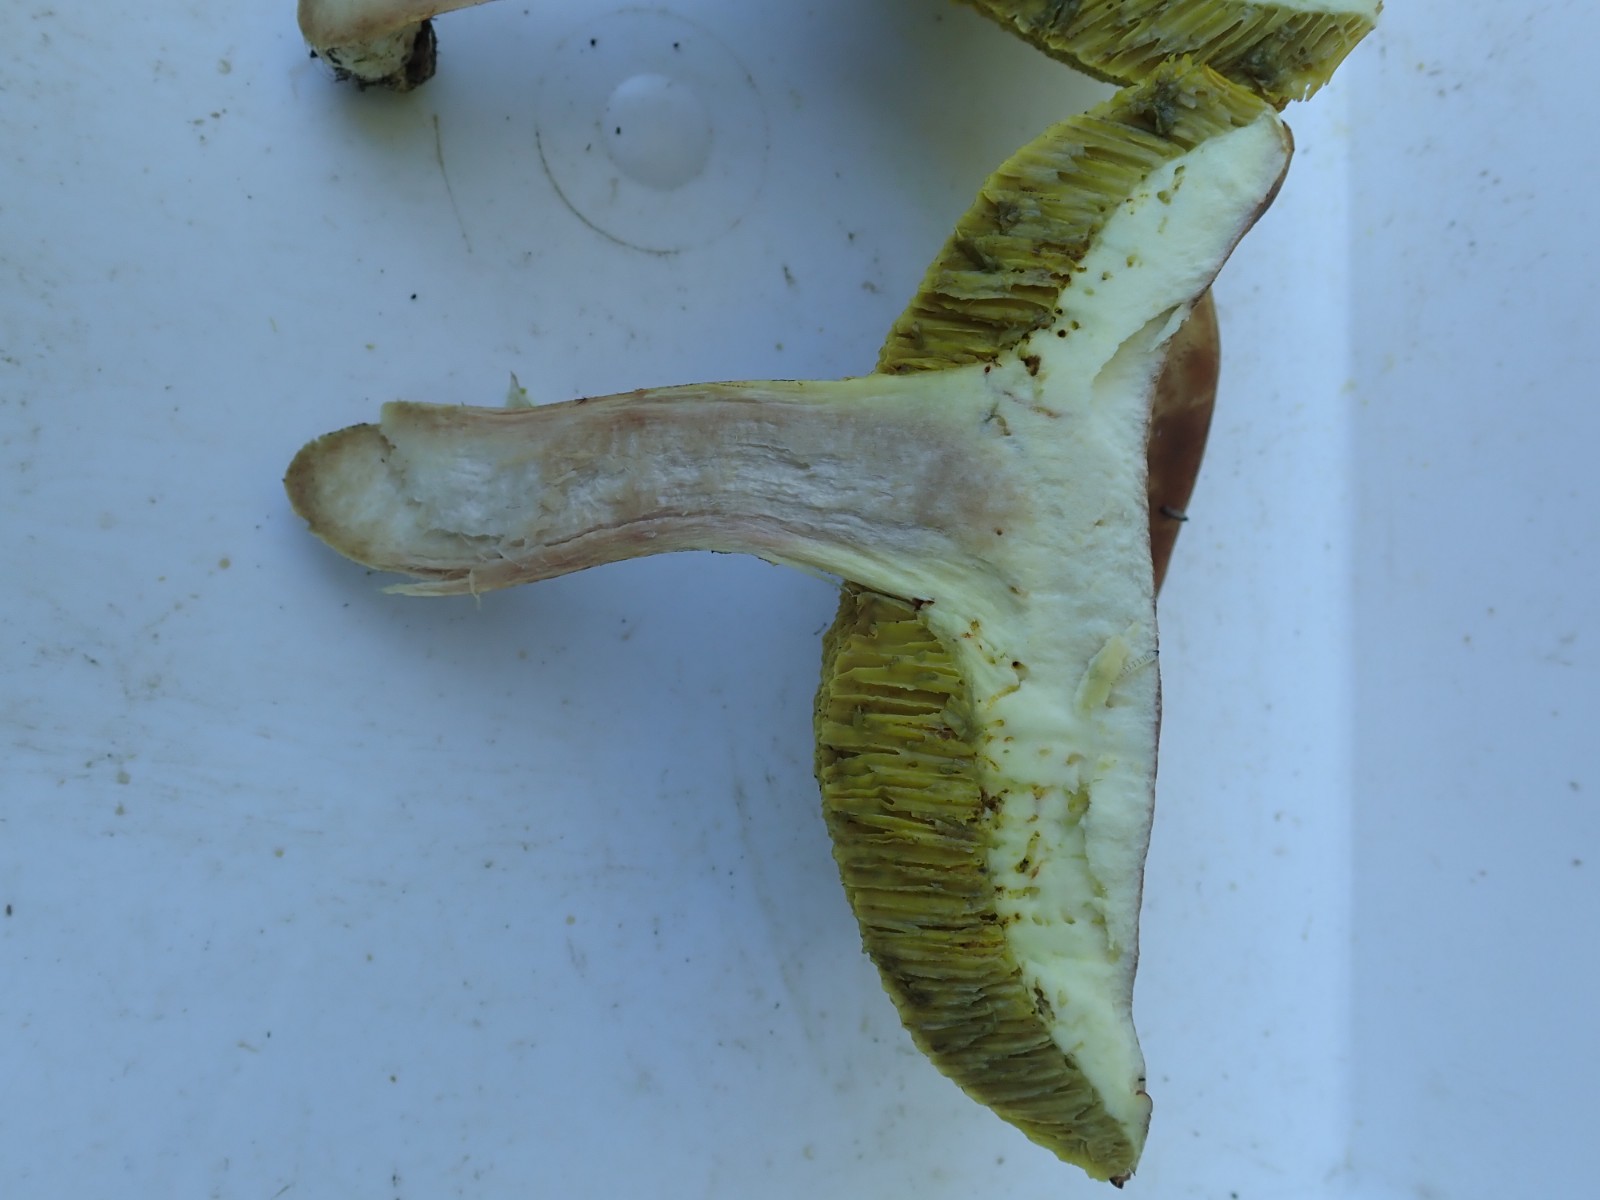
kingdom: Fungi
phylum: Basidiomycota
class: Agaricomycetes
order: Boletales
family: Boletaceae
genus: Xerocomus
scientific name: Xerocomus subtomentosus
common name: filtet rørhat
